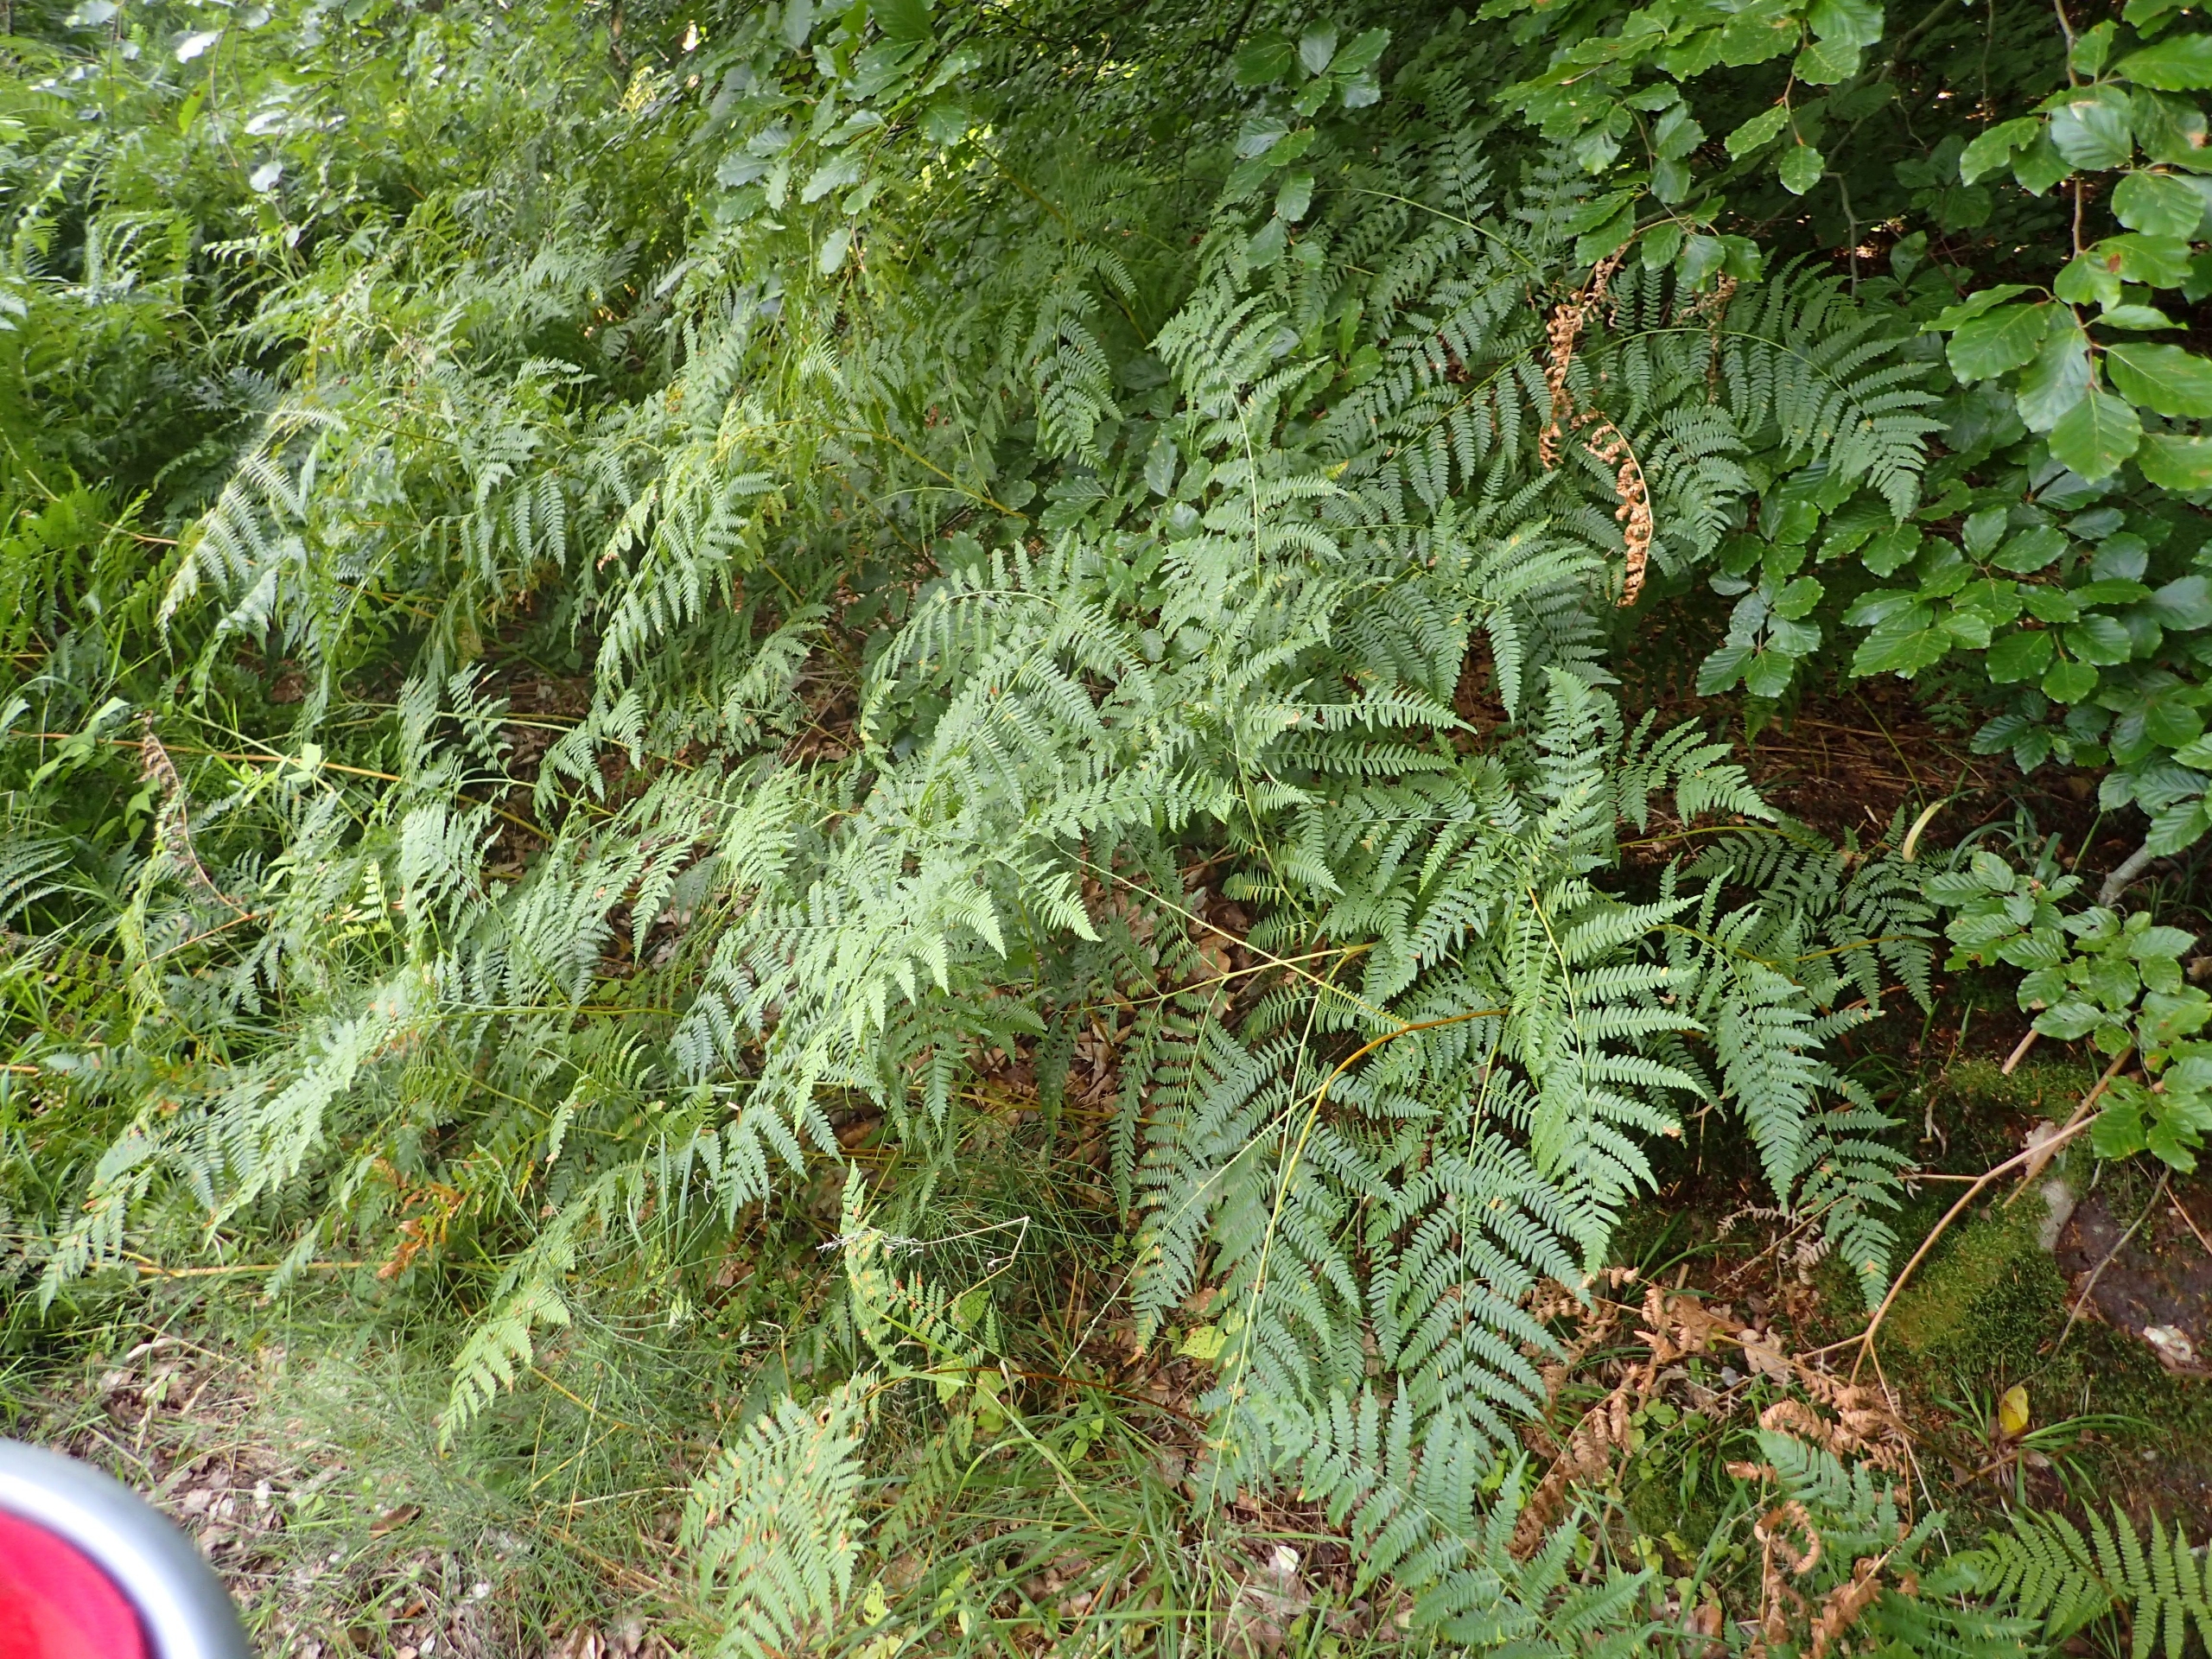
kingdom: Plantae
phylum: Tracheophyta
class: Polypodiopsida
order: Polypodiales
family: Dennstaedtiaceae
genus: Pteridium
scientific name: Pteridium aquilinum
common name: Ørnebregne
